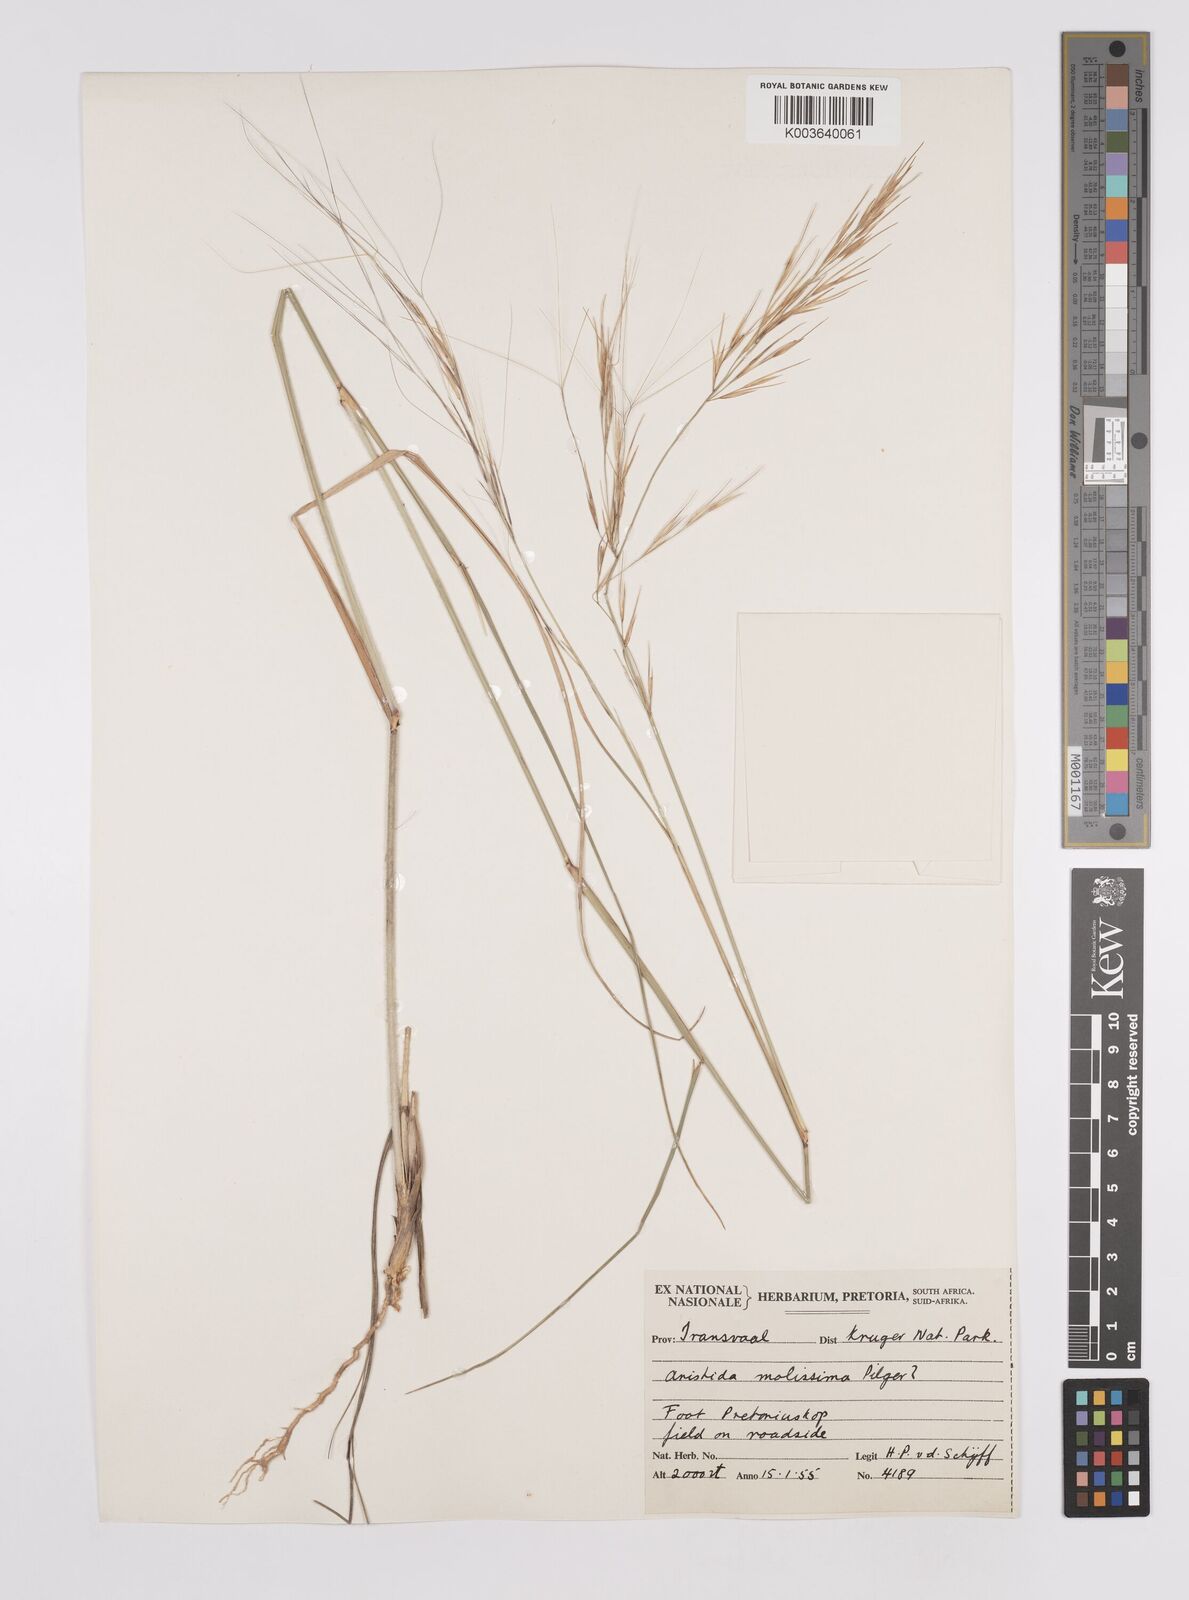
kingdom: Plantae
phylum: Tracheophyta
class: Liliopsida
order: Poales
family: Poaceae
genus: Aristida
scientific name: Aristida mollissima
